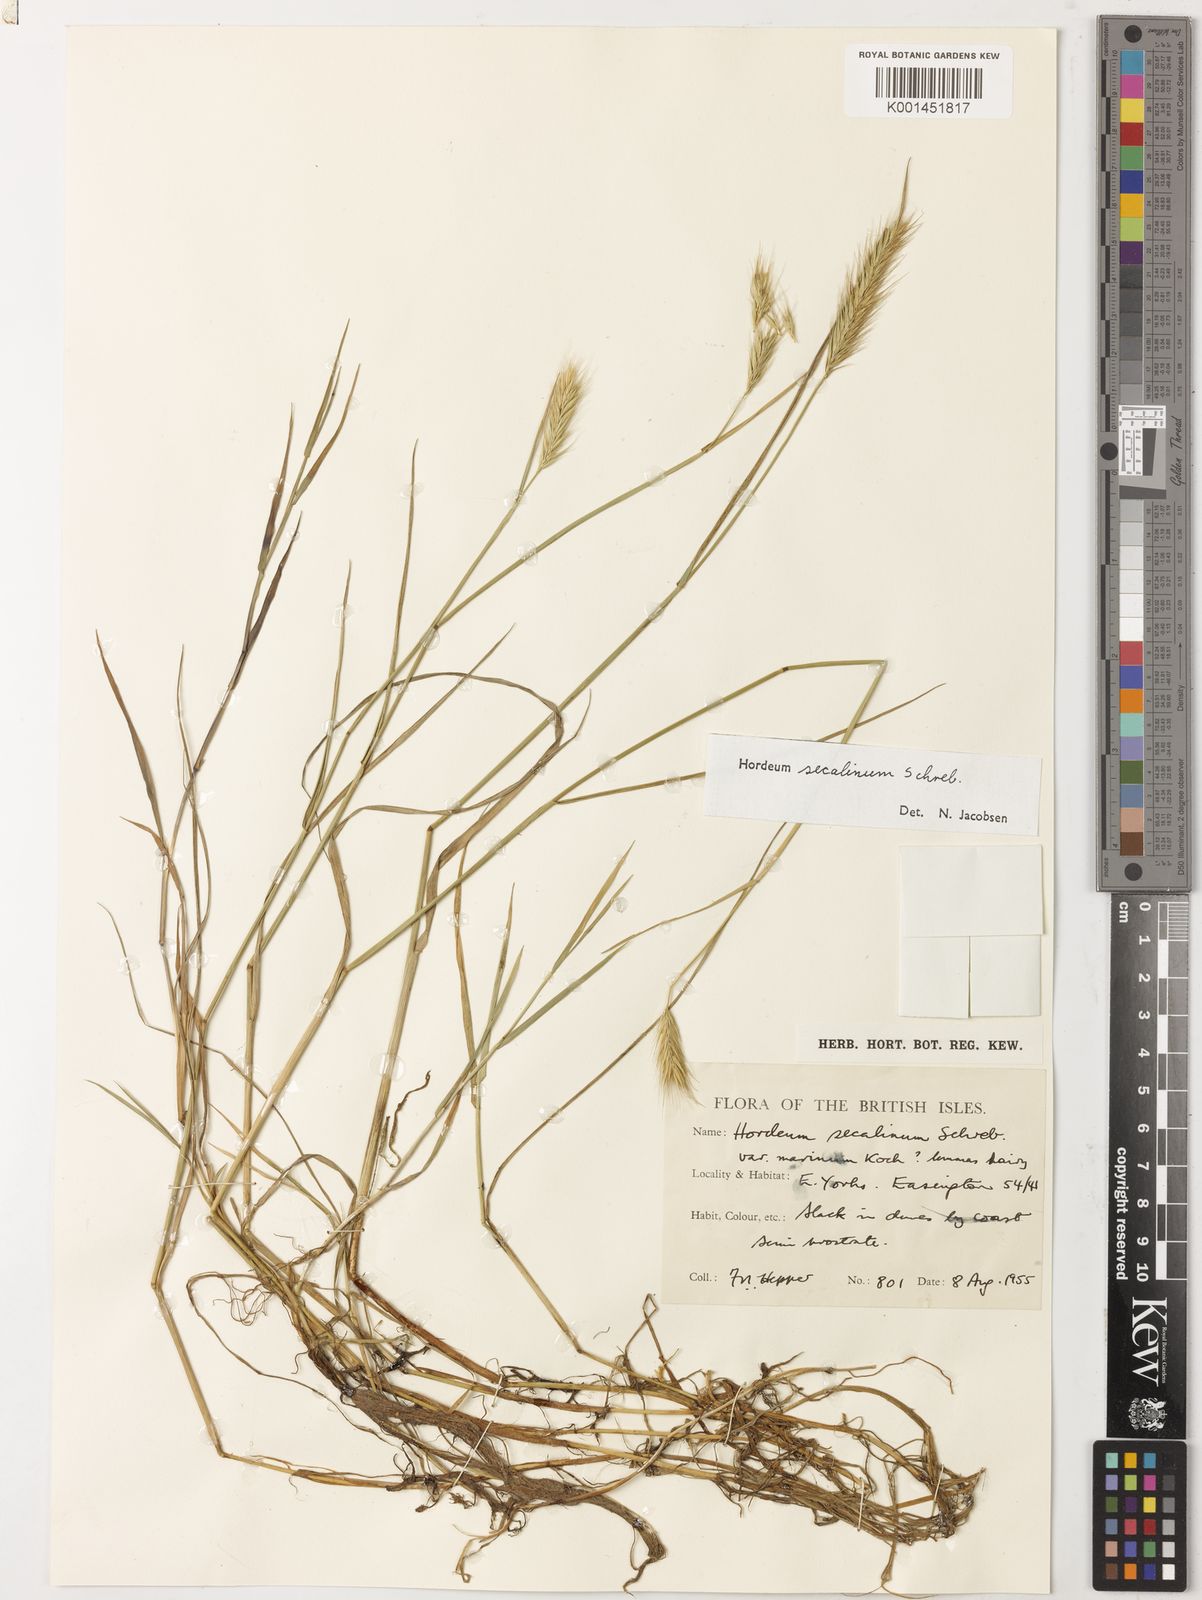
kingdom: Plantae
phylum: Tracheophyta
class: Liliopsida
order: Poales
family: Poaceae
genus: Hordeum
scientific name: Hordeum secalinum
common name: Meadow barley
